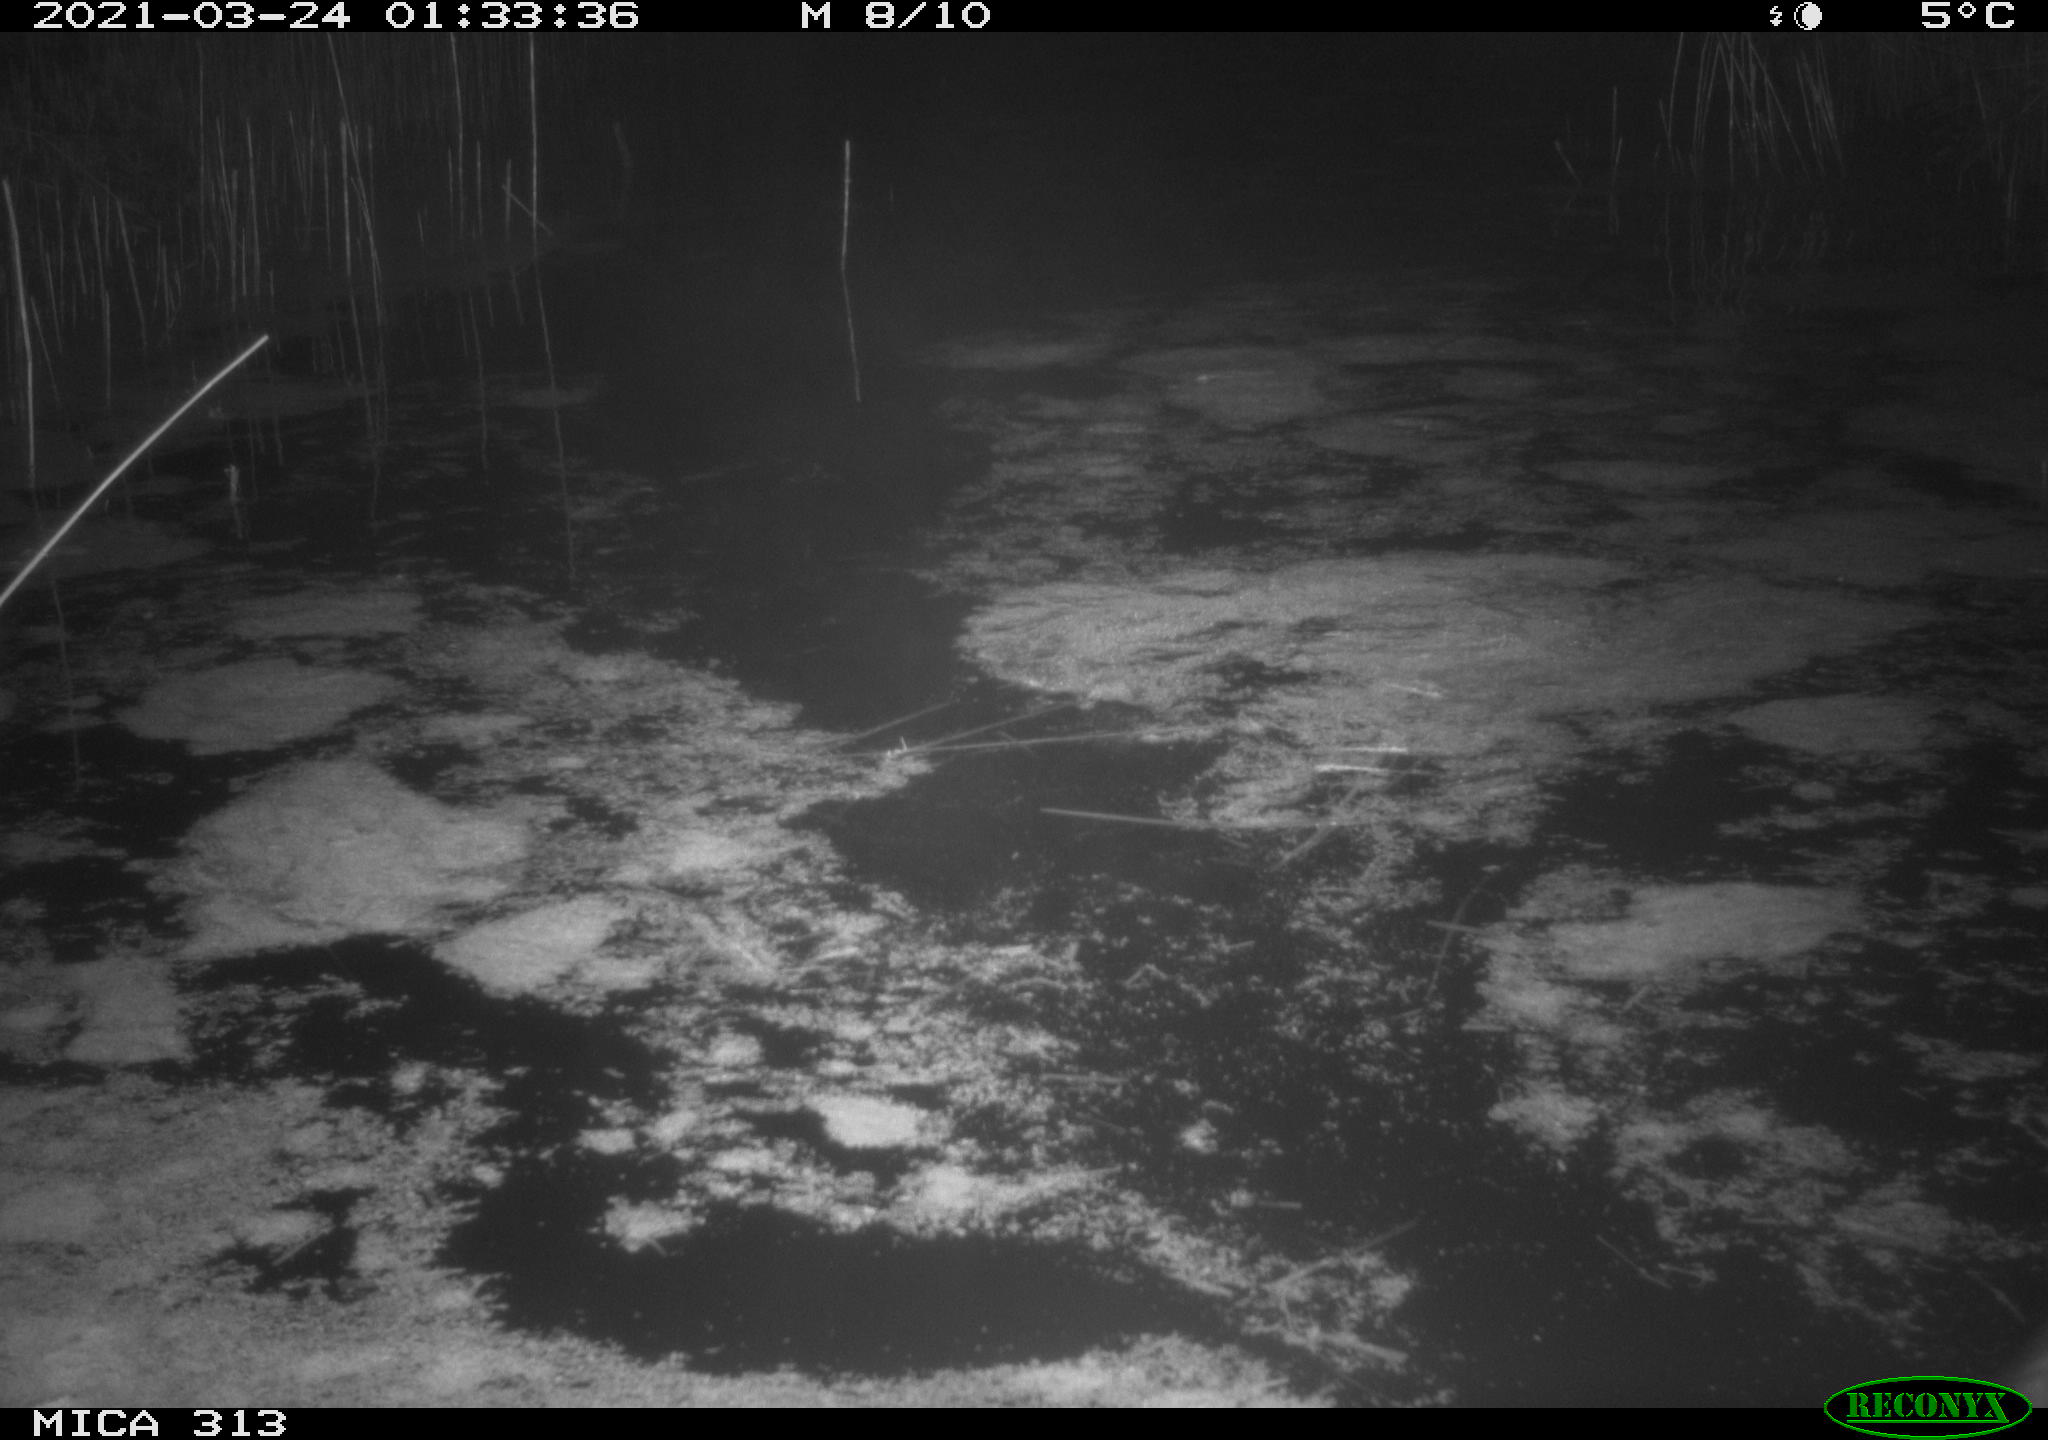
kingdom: Animalia
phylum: Chordata
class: Aves
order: Anseriformes
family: Anatidae
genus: Anas
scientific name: Anas platyrhynchos
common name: Mallard
